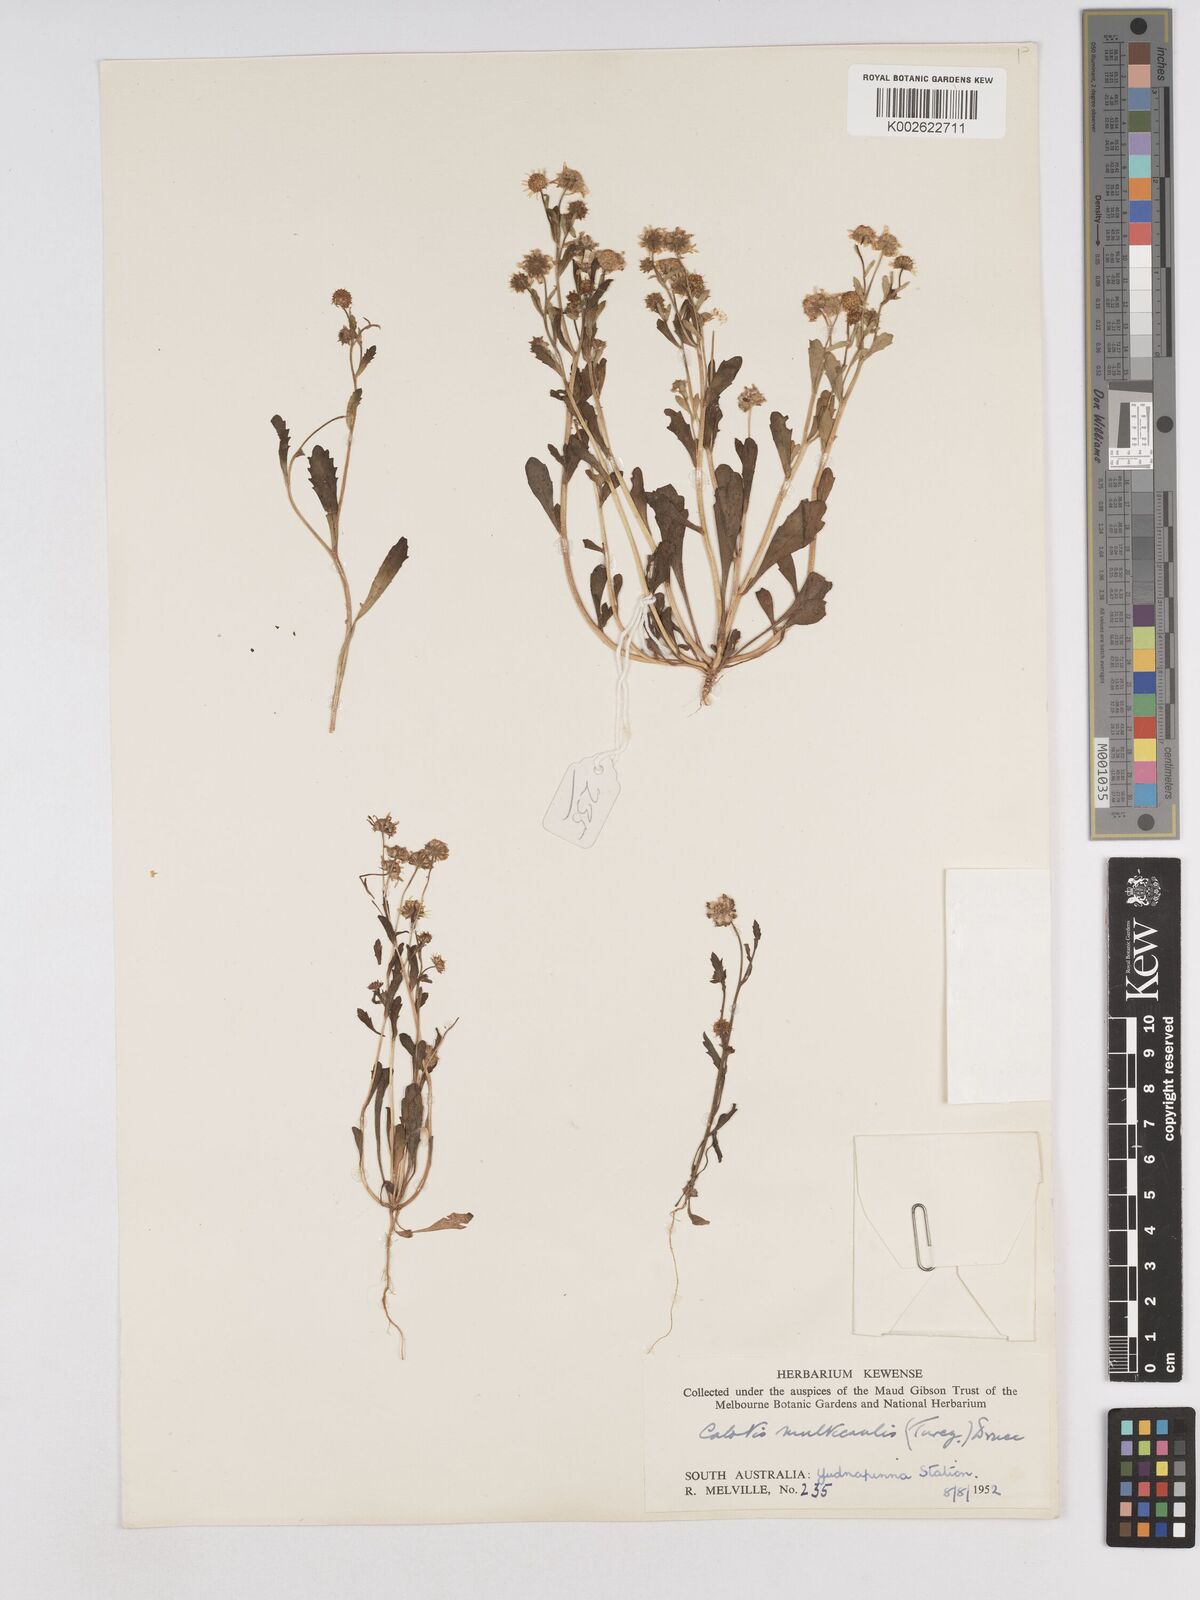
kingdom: Plantae
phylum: Tracheophyta
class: Magnoliopsida
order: Asterales
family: Asteraceae
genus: Calotis
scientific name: Calotis multicaulis
